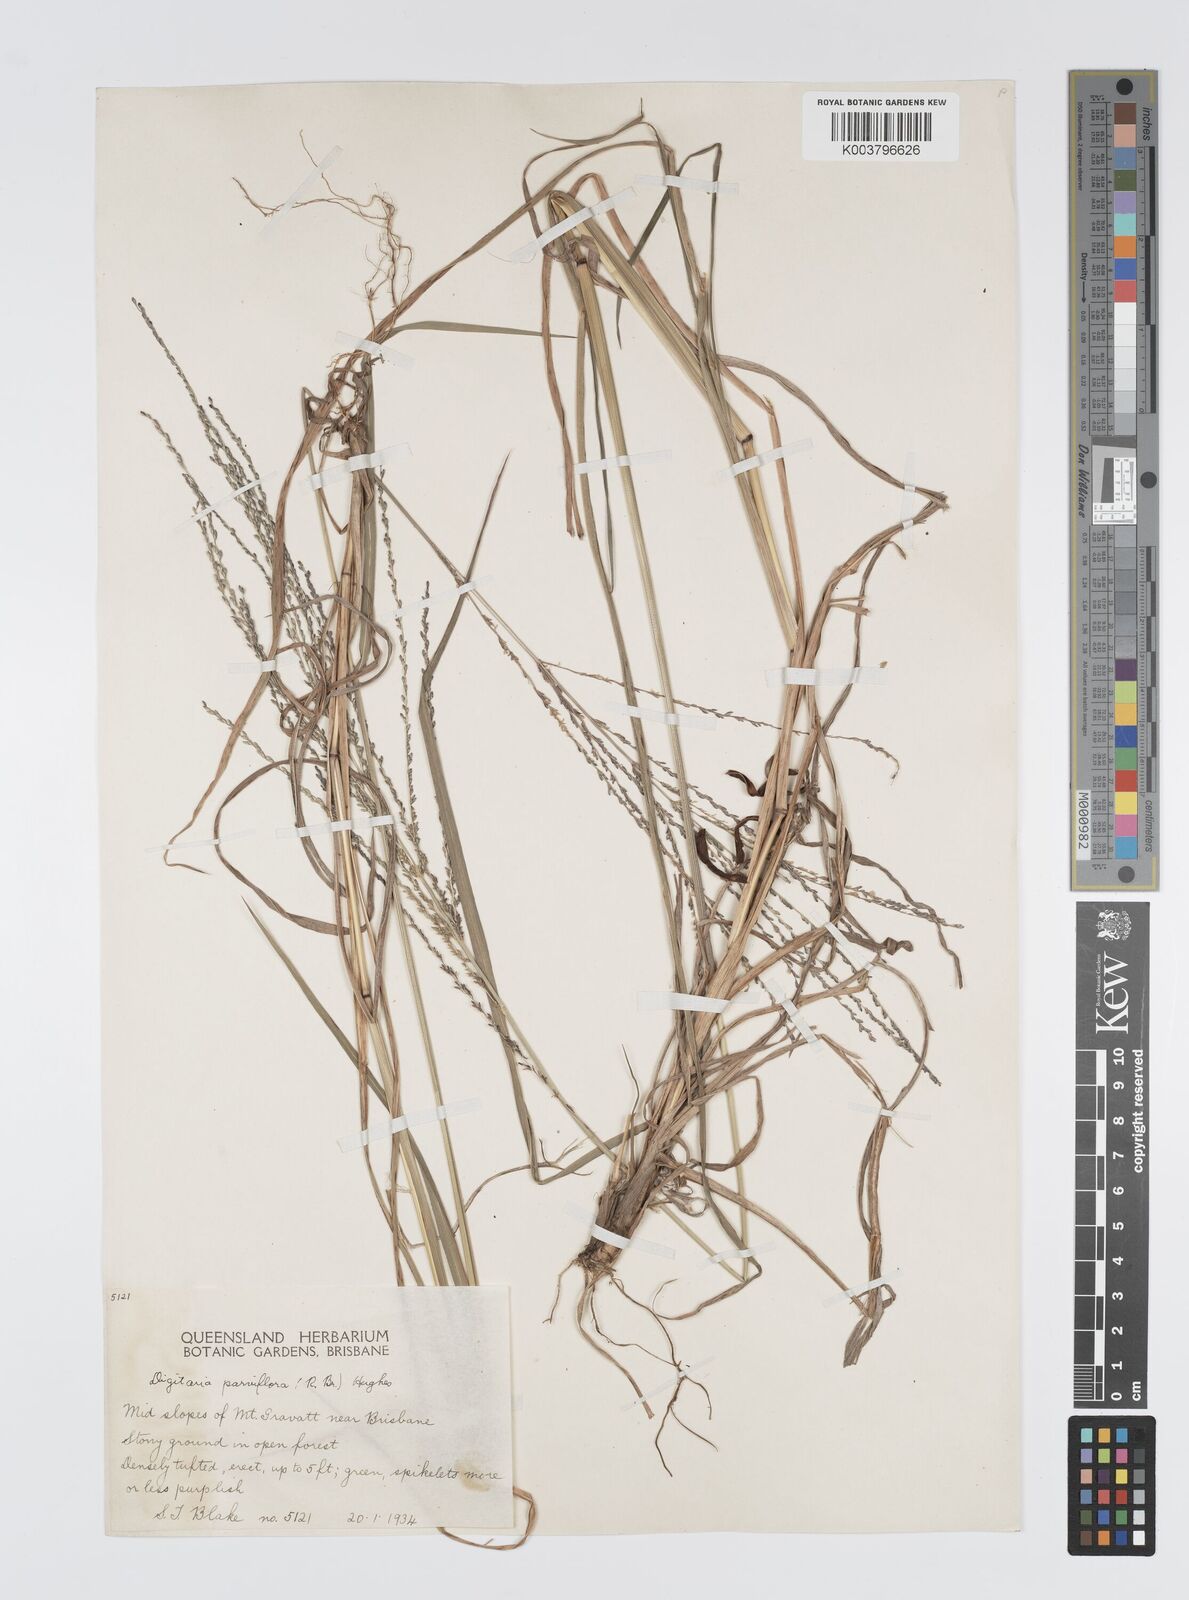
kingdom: Plantae
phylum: Tracheophyta
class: Liliopsida
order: Poales
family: Poaceae
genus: Digitaria
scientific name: Digitaria parviflora
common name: Small-flower finger grass
